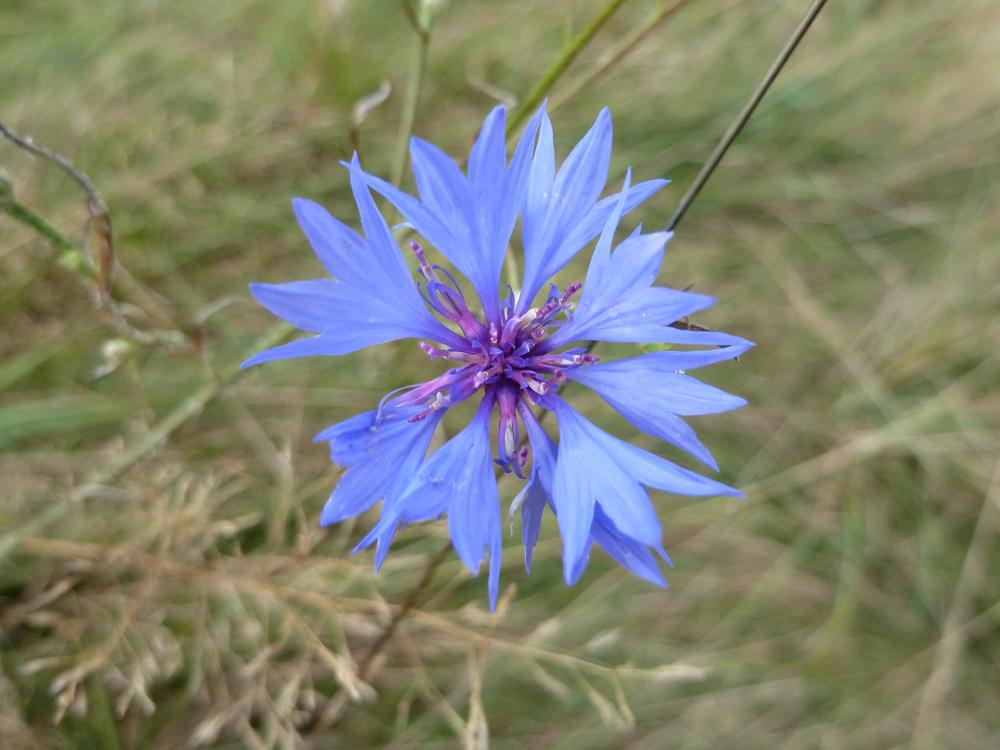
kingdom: Plantae
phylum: Tracheophyta
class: Magnoliopsida
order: Asterales
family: Asteraceae
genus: Centaurea
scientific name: Centaurea cyanus
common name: Cornflower
